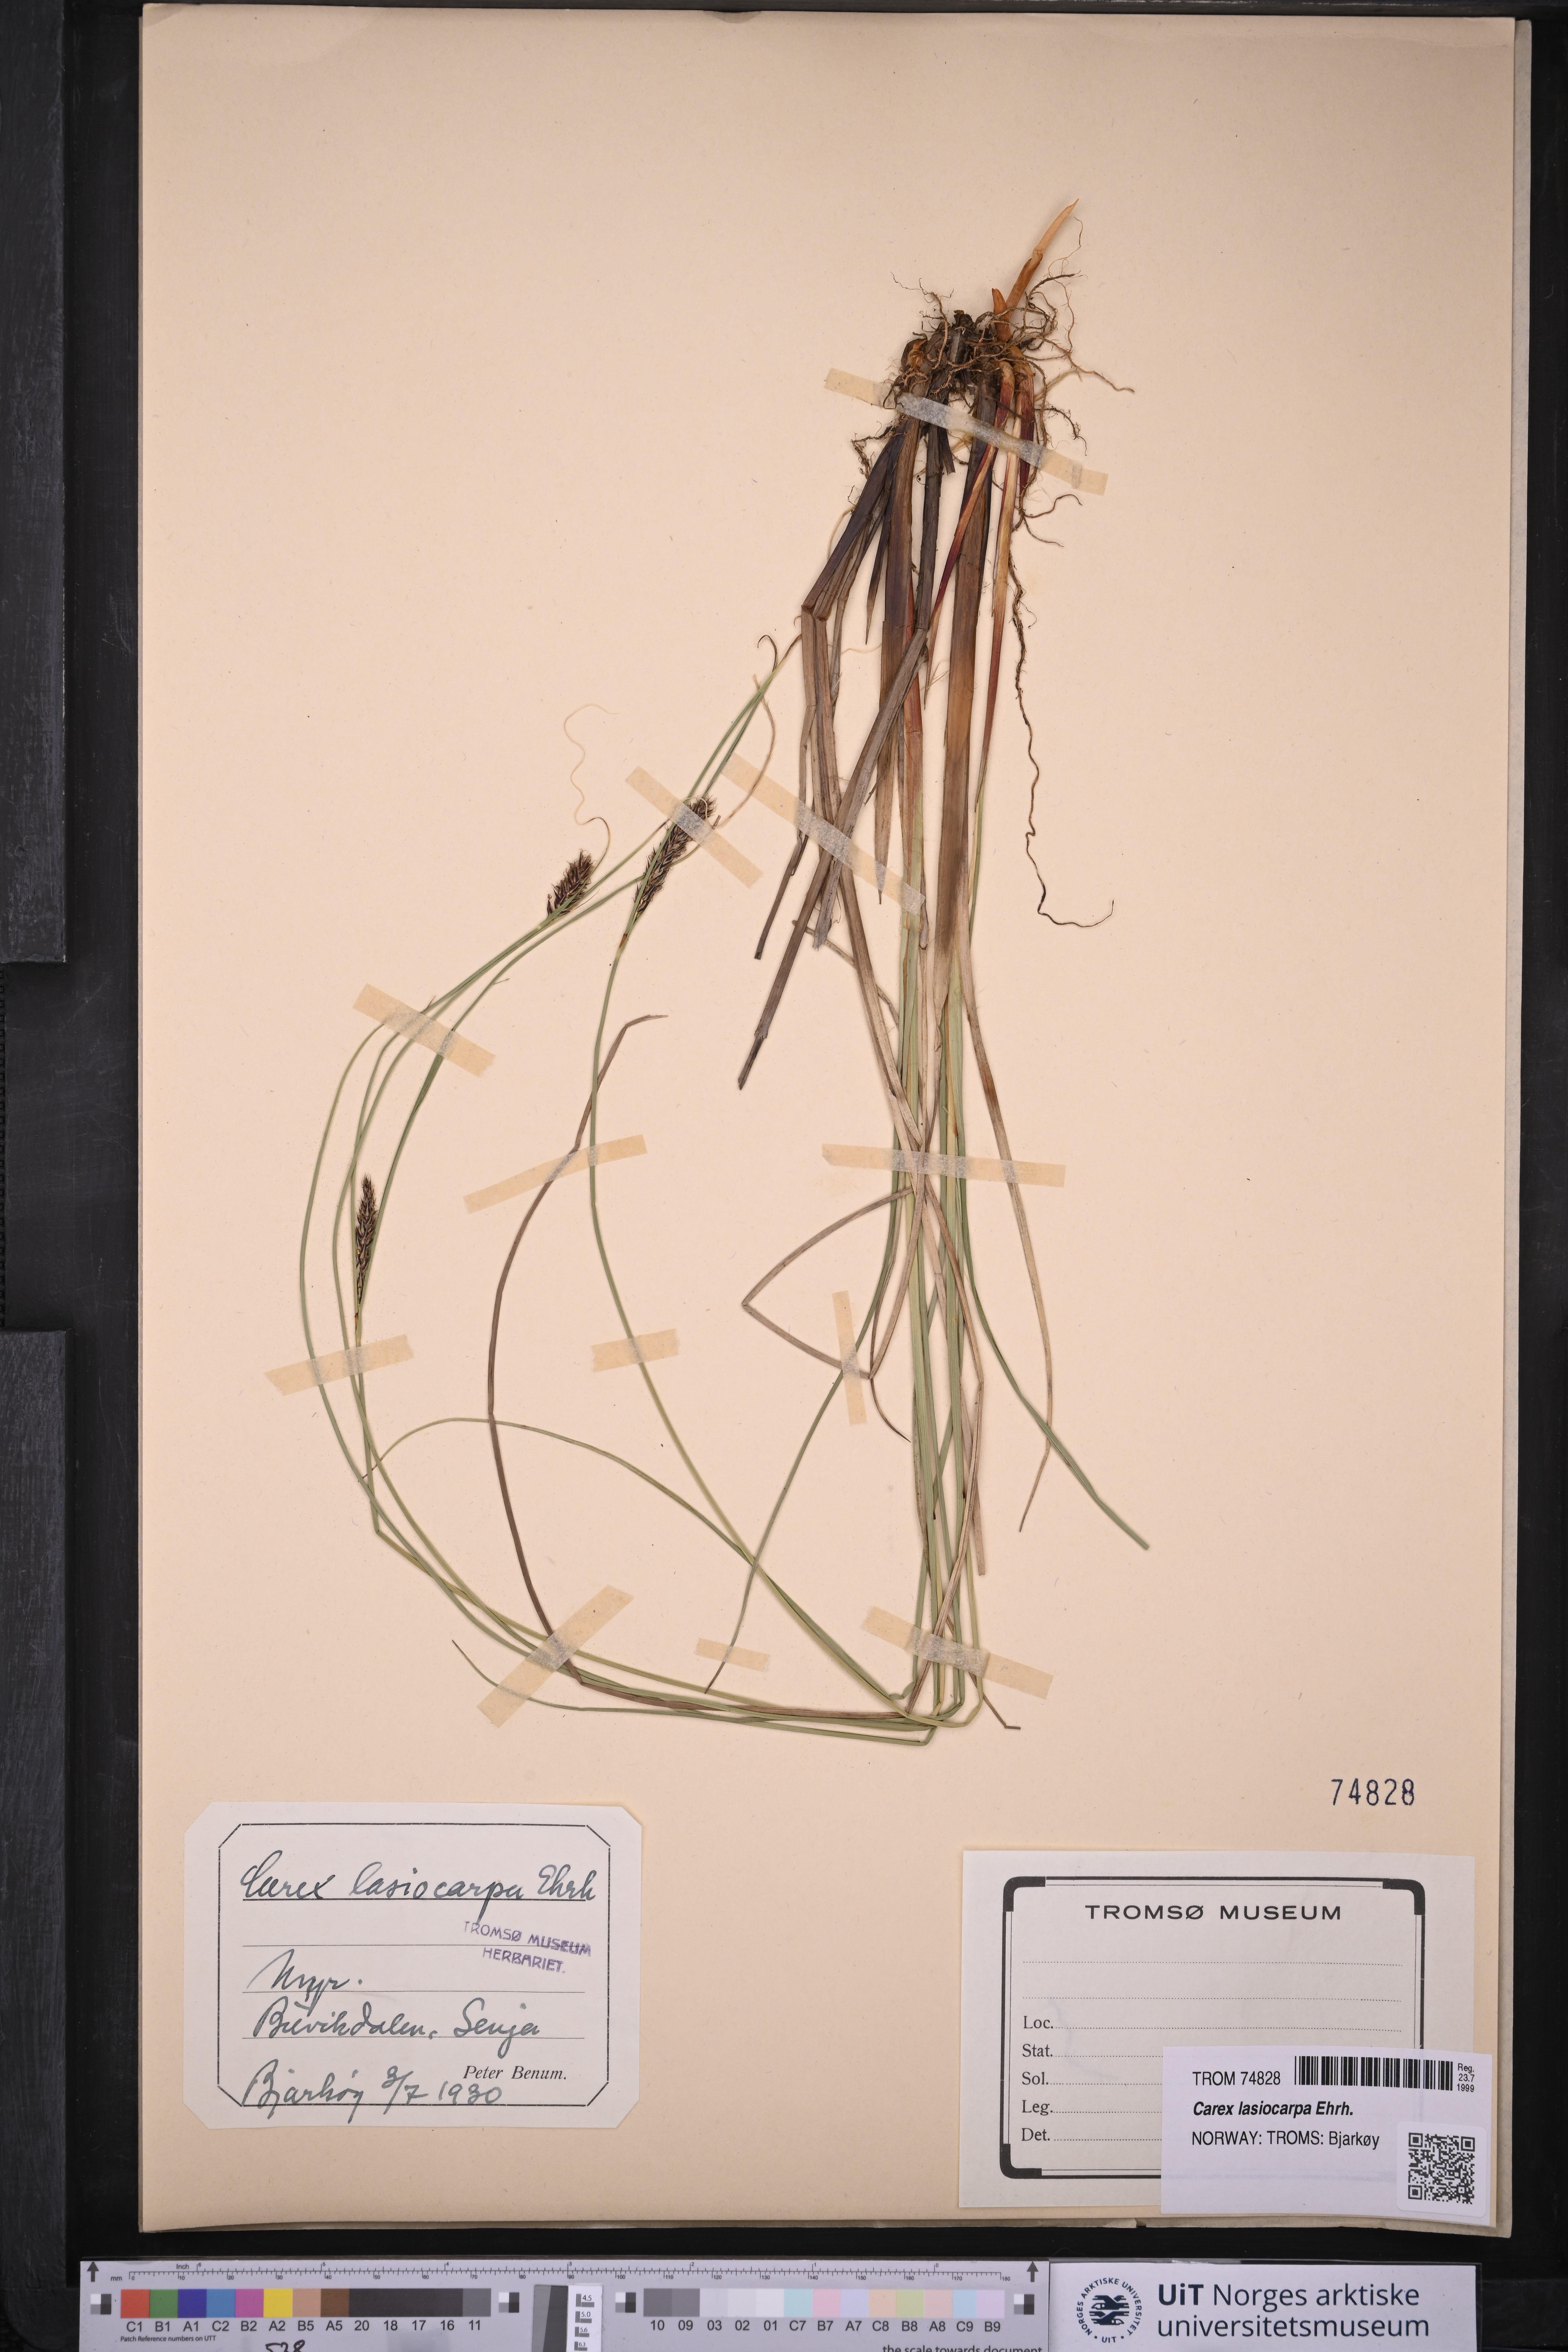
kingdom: Plantae
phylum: Tracheophyta
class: Liliopsida
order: Poales
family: Cyperaceae
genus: Carex
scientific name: Carex lasiocarpa
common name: Slender sedge
